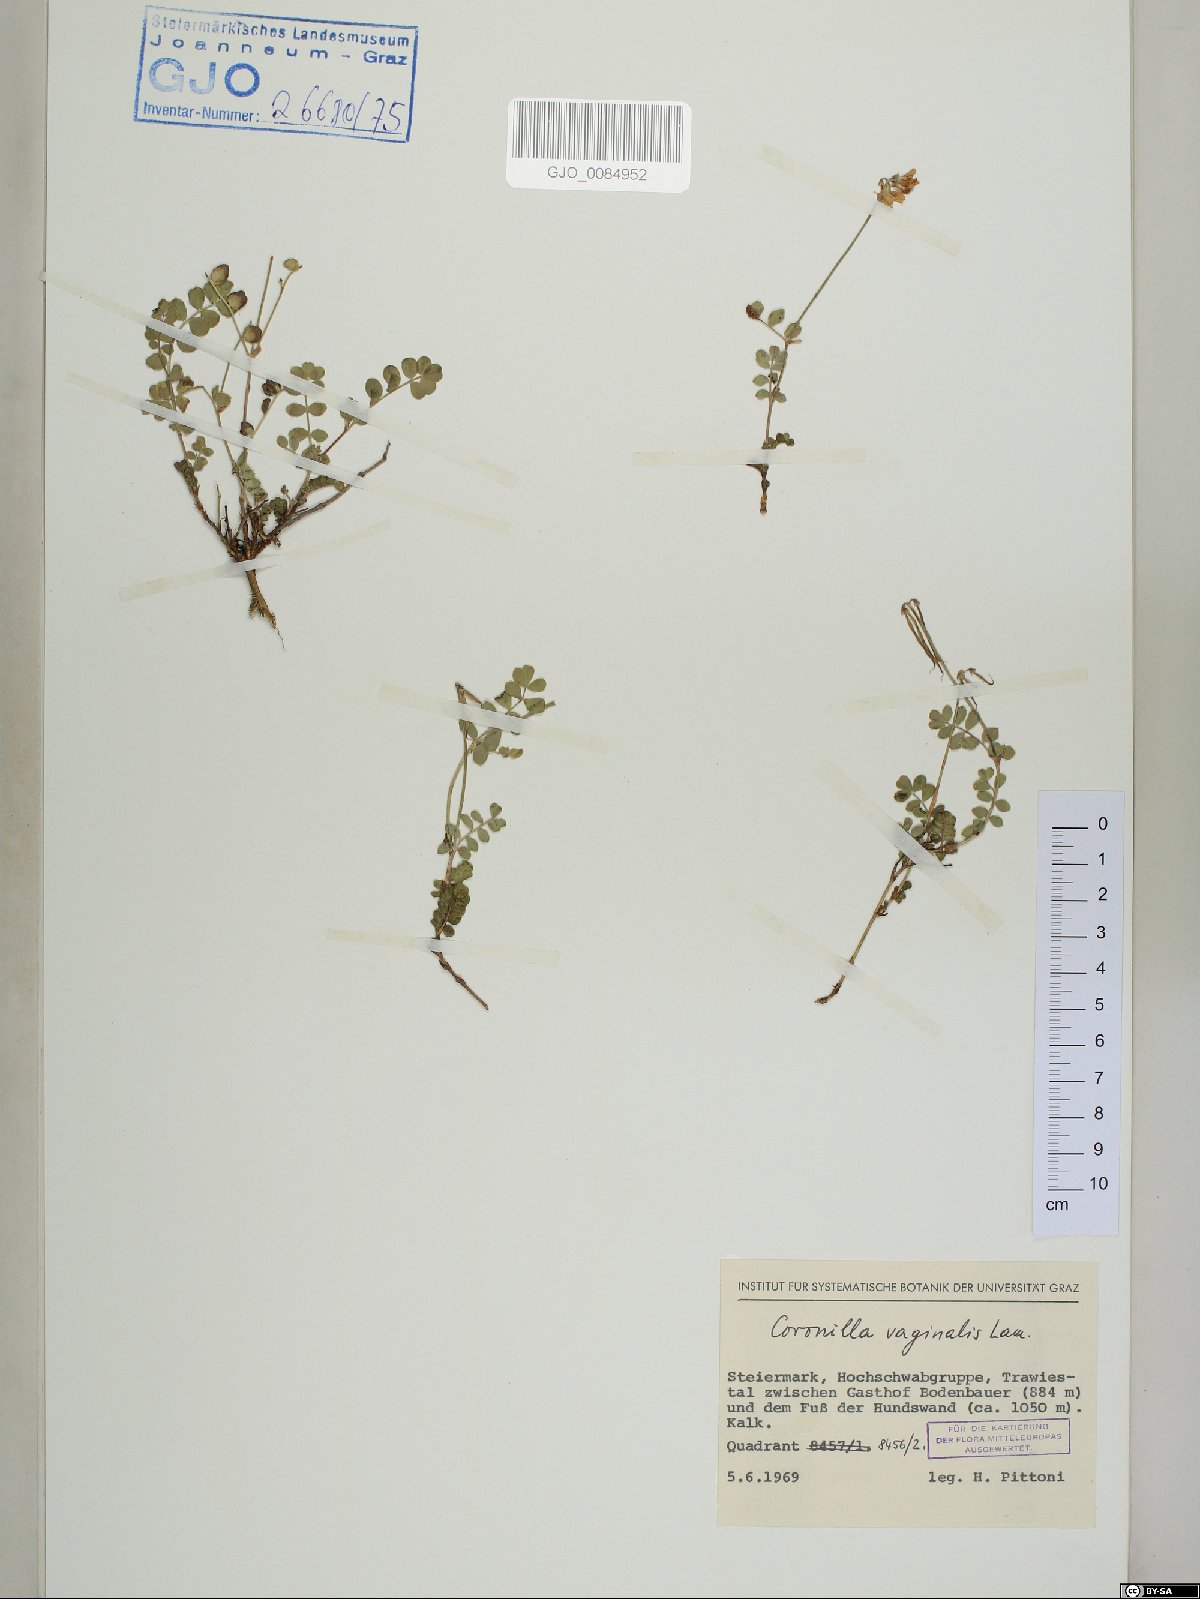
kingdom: Plantae
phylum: Tracheophyta
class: Magnoliopsida
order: Fabales
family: Fabaceae
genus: Coronilla
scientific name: Coronilla vaginalis
